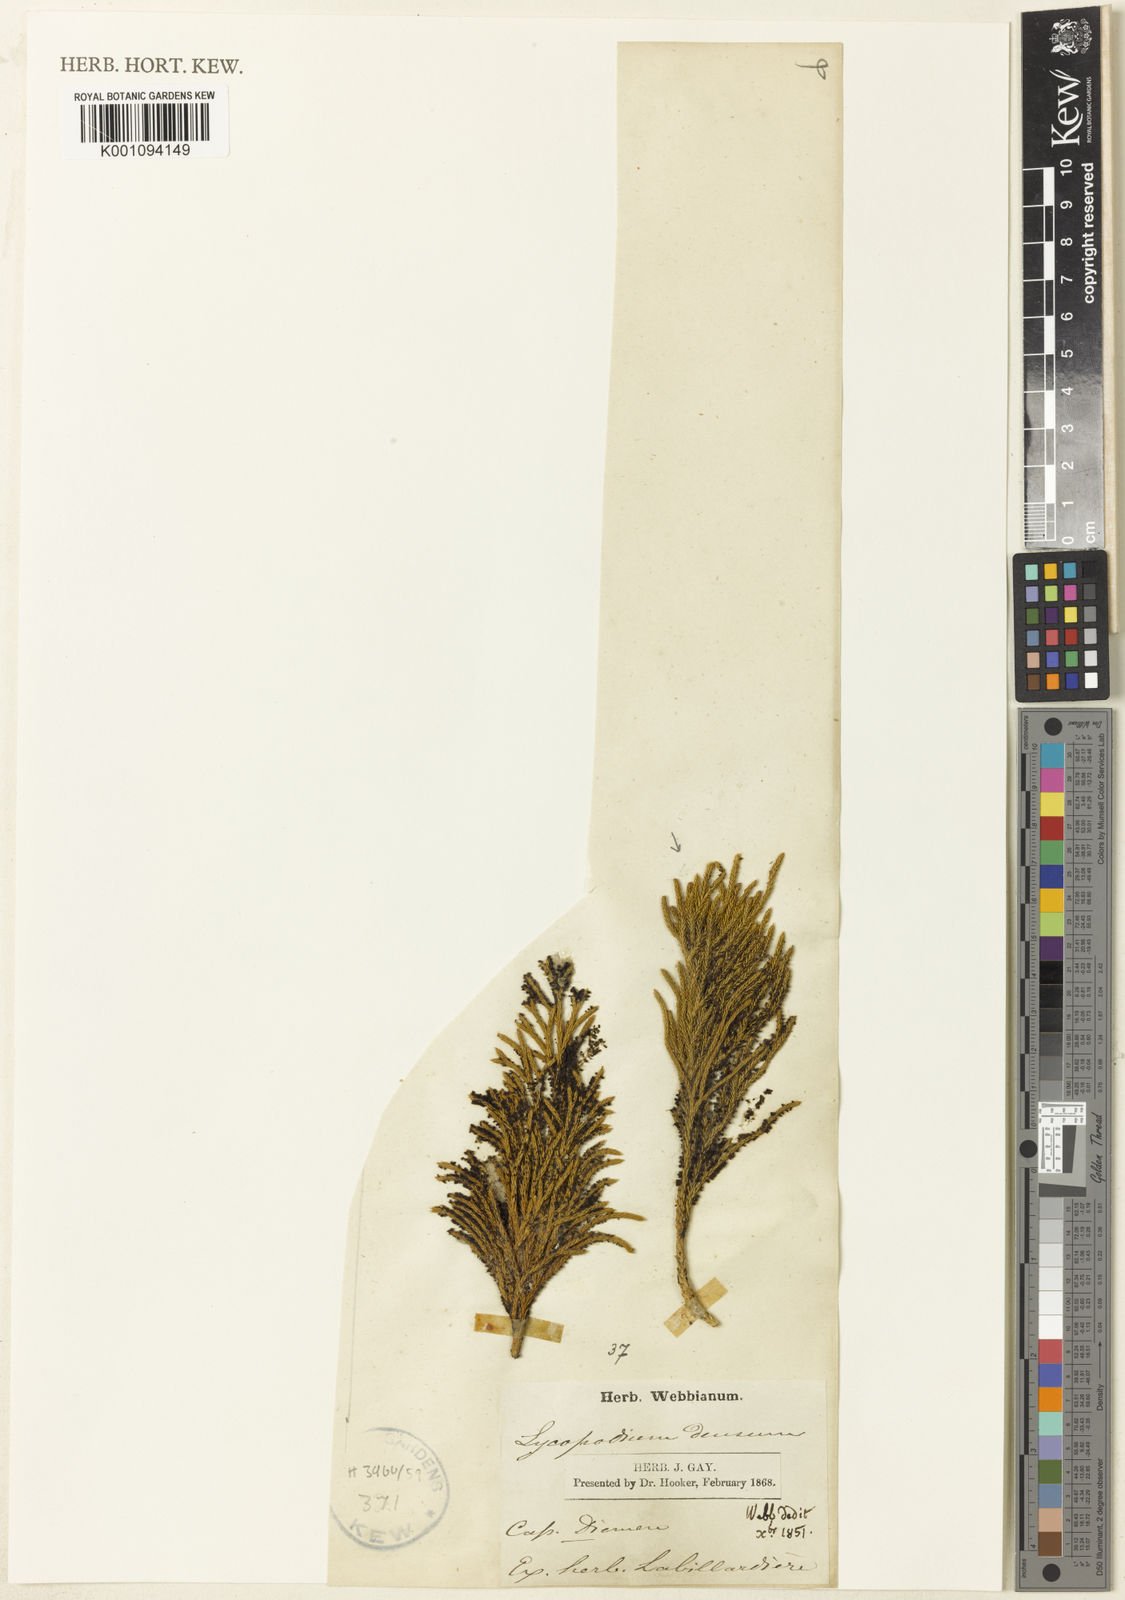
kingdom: Plantae
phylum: Tracheophyta
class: Lycopodiopsida
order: Lycopodiales
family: Lycopodiaceae
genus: Pseudolycopodium
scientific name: Pseudolycopodium densum
